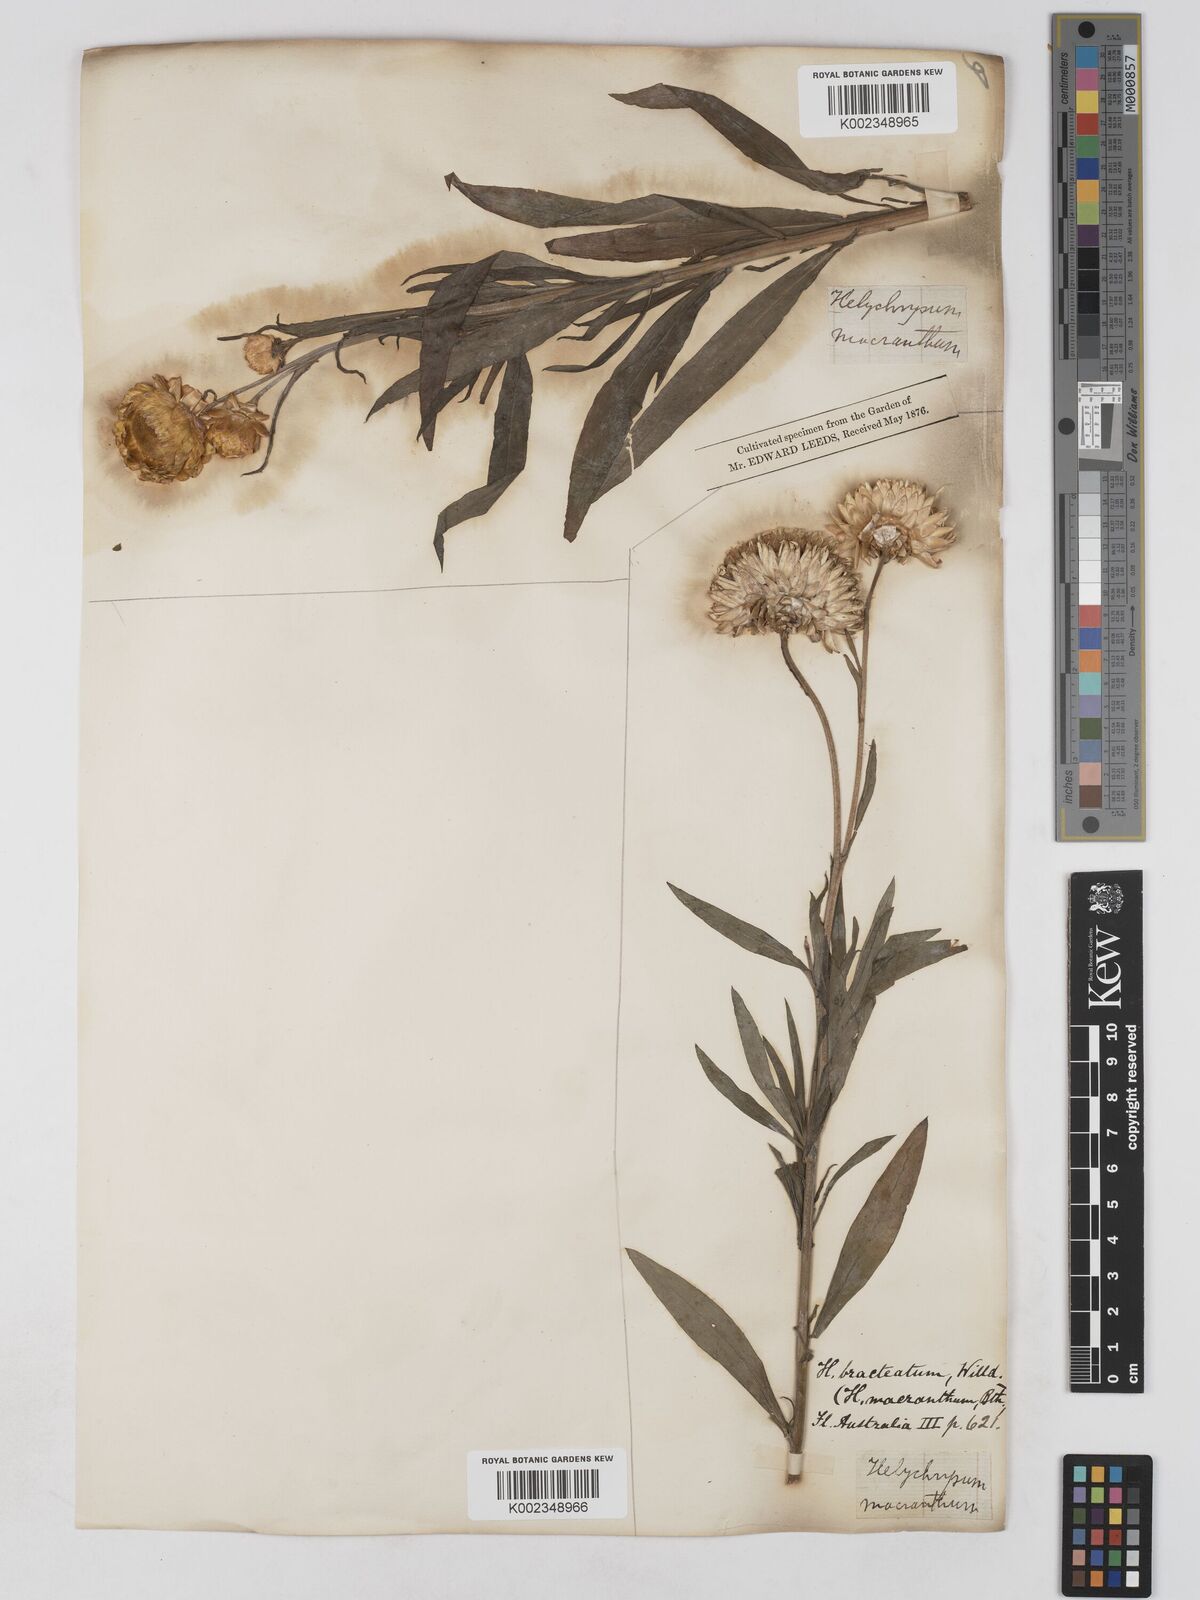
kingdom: Plantae
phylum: Tracheophyta
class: Magnoliopsida
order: Asterales
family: Asteraceae
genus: Xerochrysum
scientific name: Xerochrysum bracteatum
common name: Bracted strawflower
